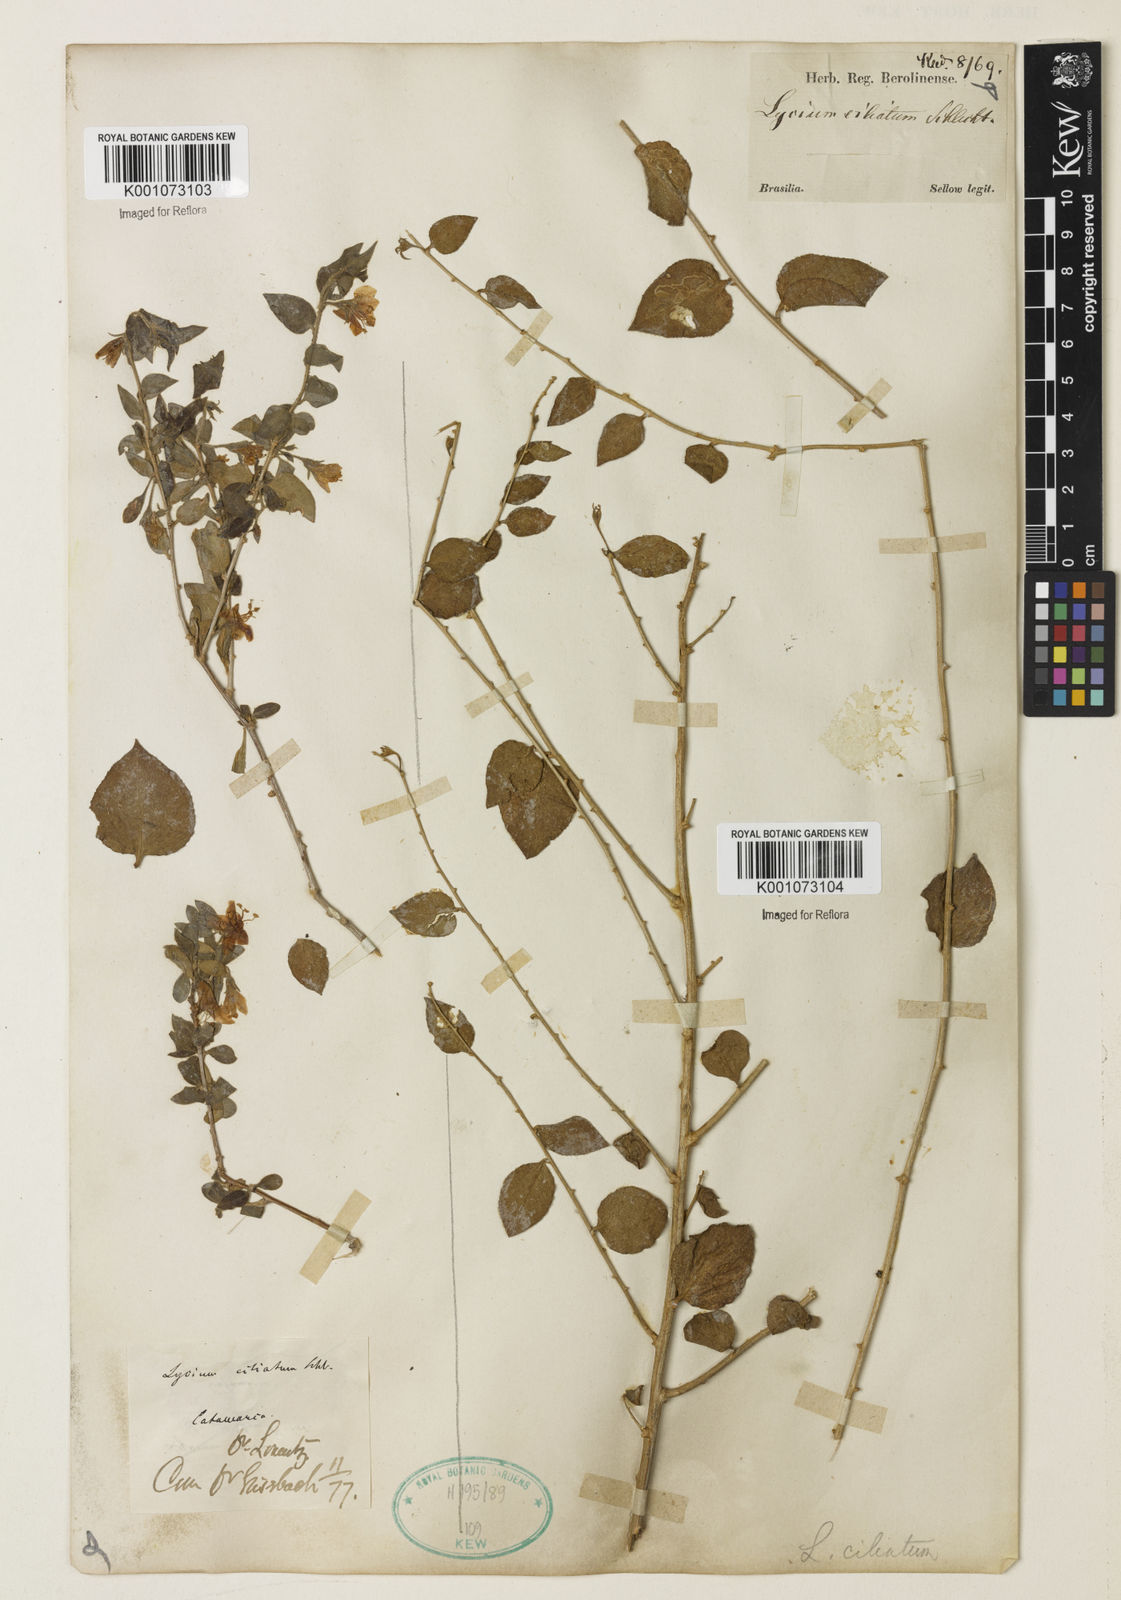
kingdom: Plantae
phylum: Tracheophyta
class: Magnoliopsida
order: Solanales
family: Solanaceae
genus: Lycium
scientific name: Lycium ciliatum
